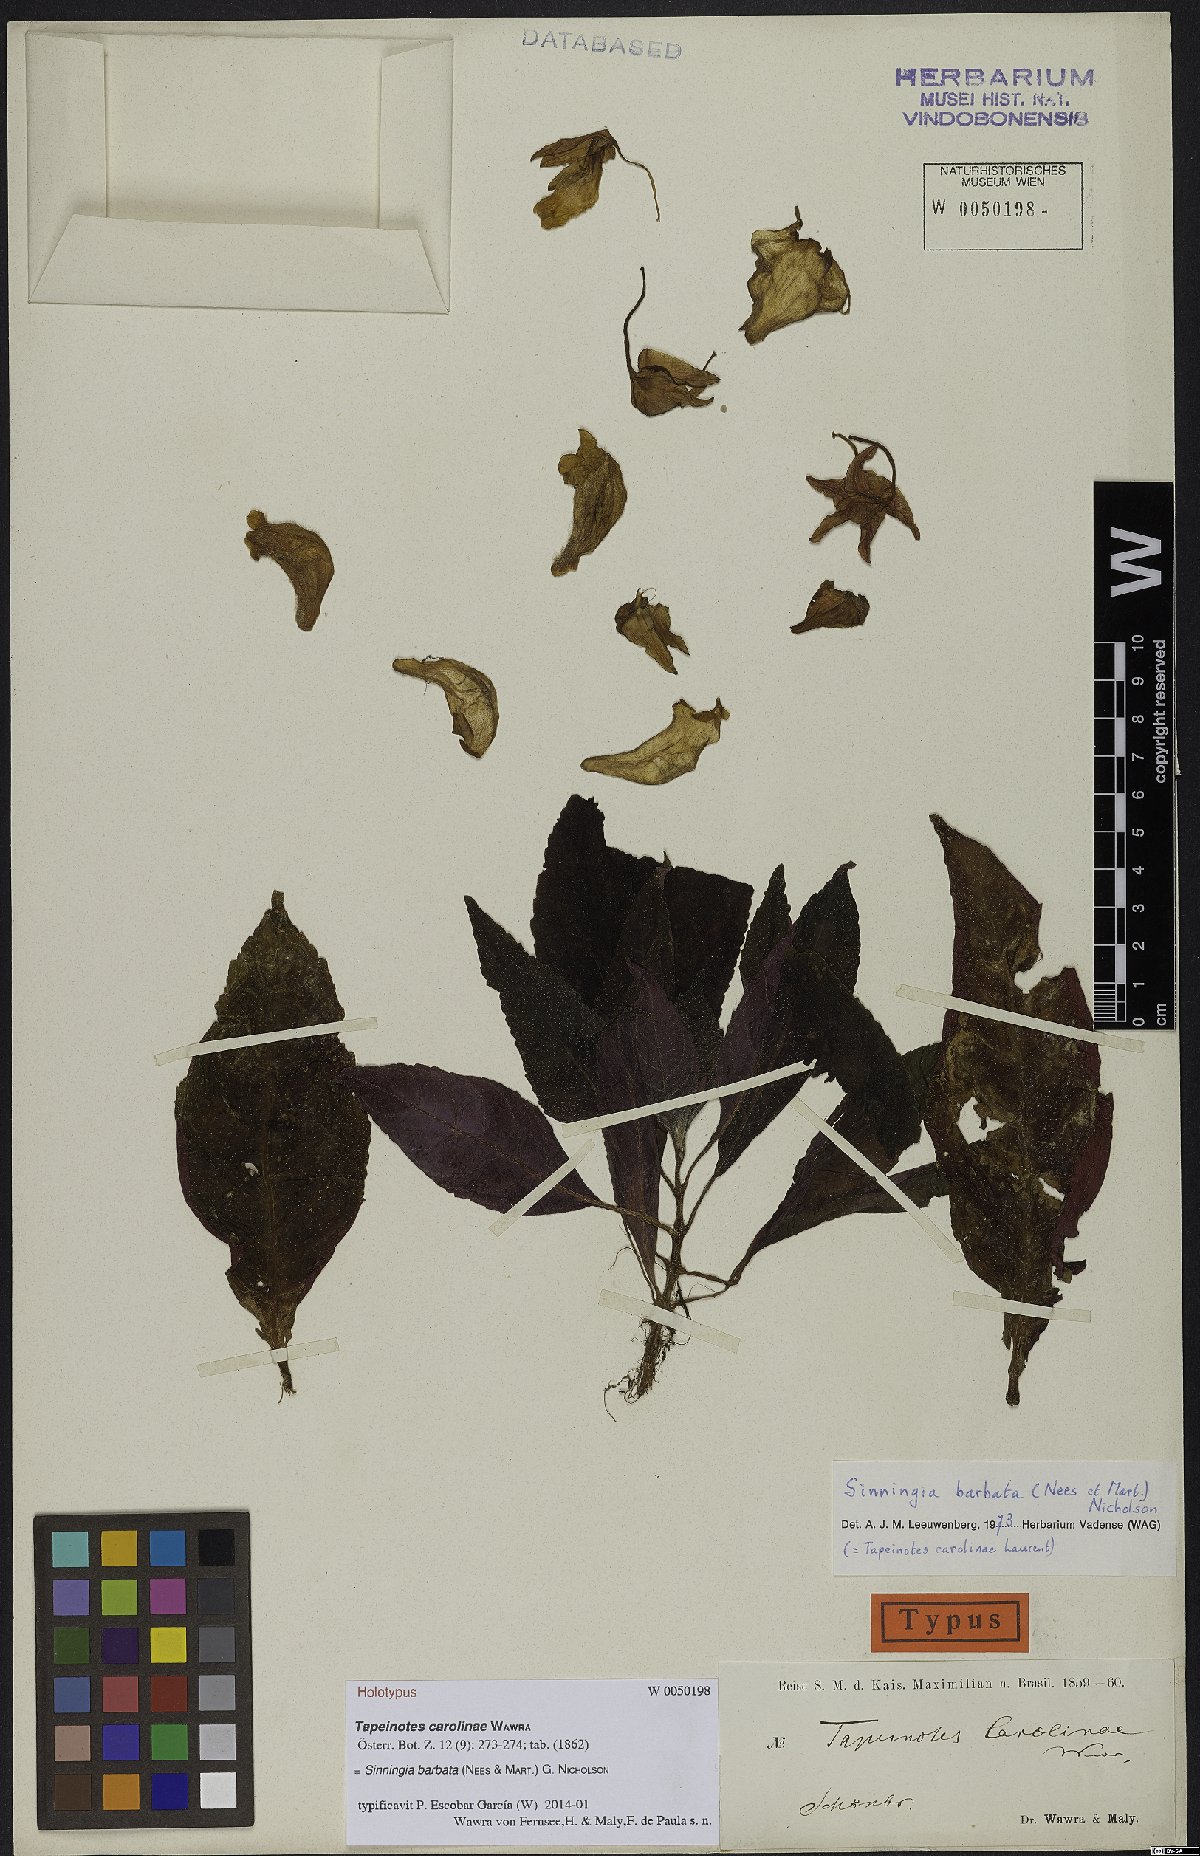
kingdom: Plantae
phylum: Tracheophyta
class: Magnoliopsida
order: Lamiales
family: Gesneriaceae
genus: Sinningia
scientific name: Sinningia barbata
